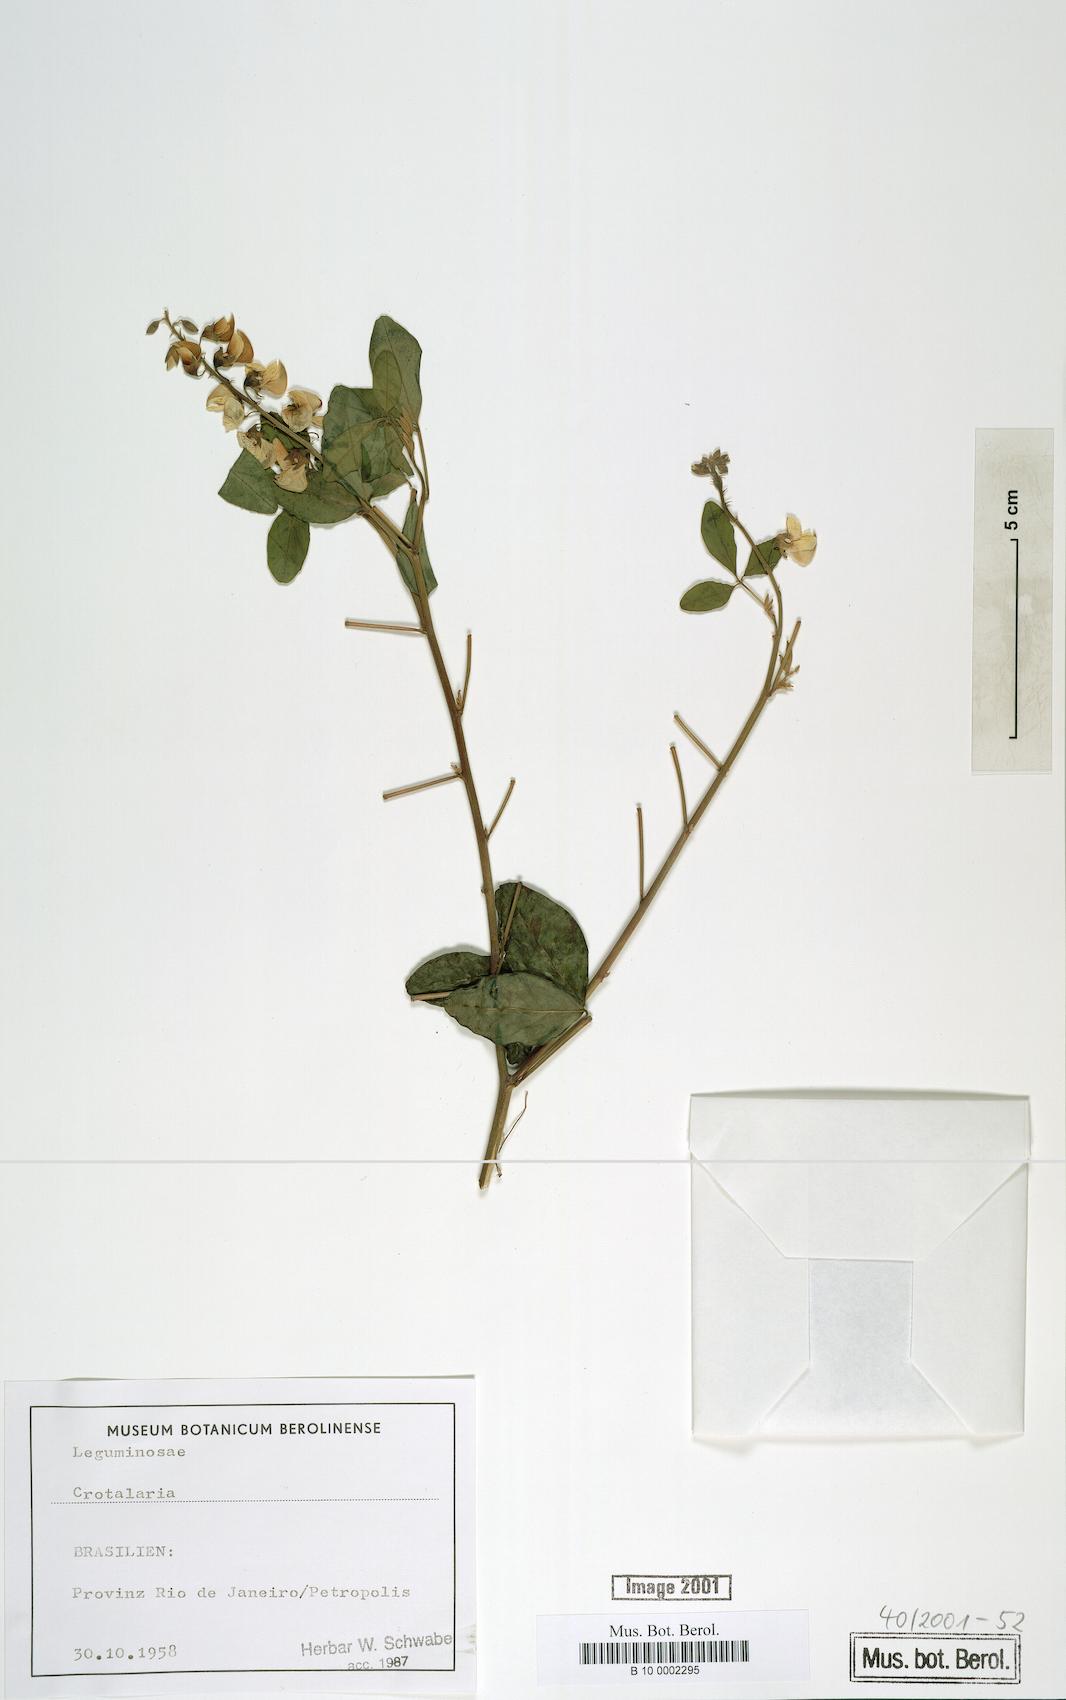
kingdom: Plantae
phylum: Tracheophyta
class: Magnoliopsida
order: Fabales
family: Fabaceae
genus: Crotalaria
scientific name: Crotalaria vitellina
